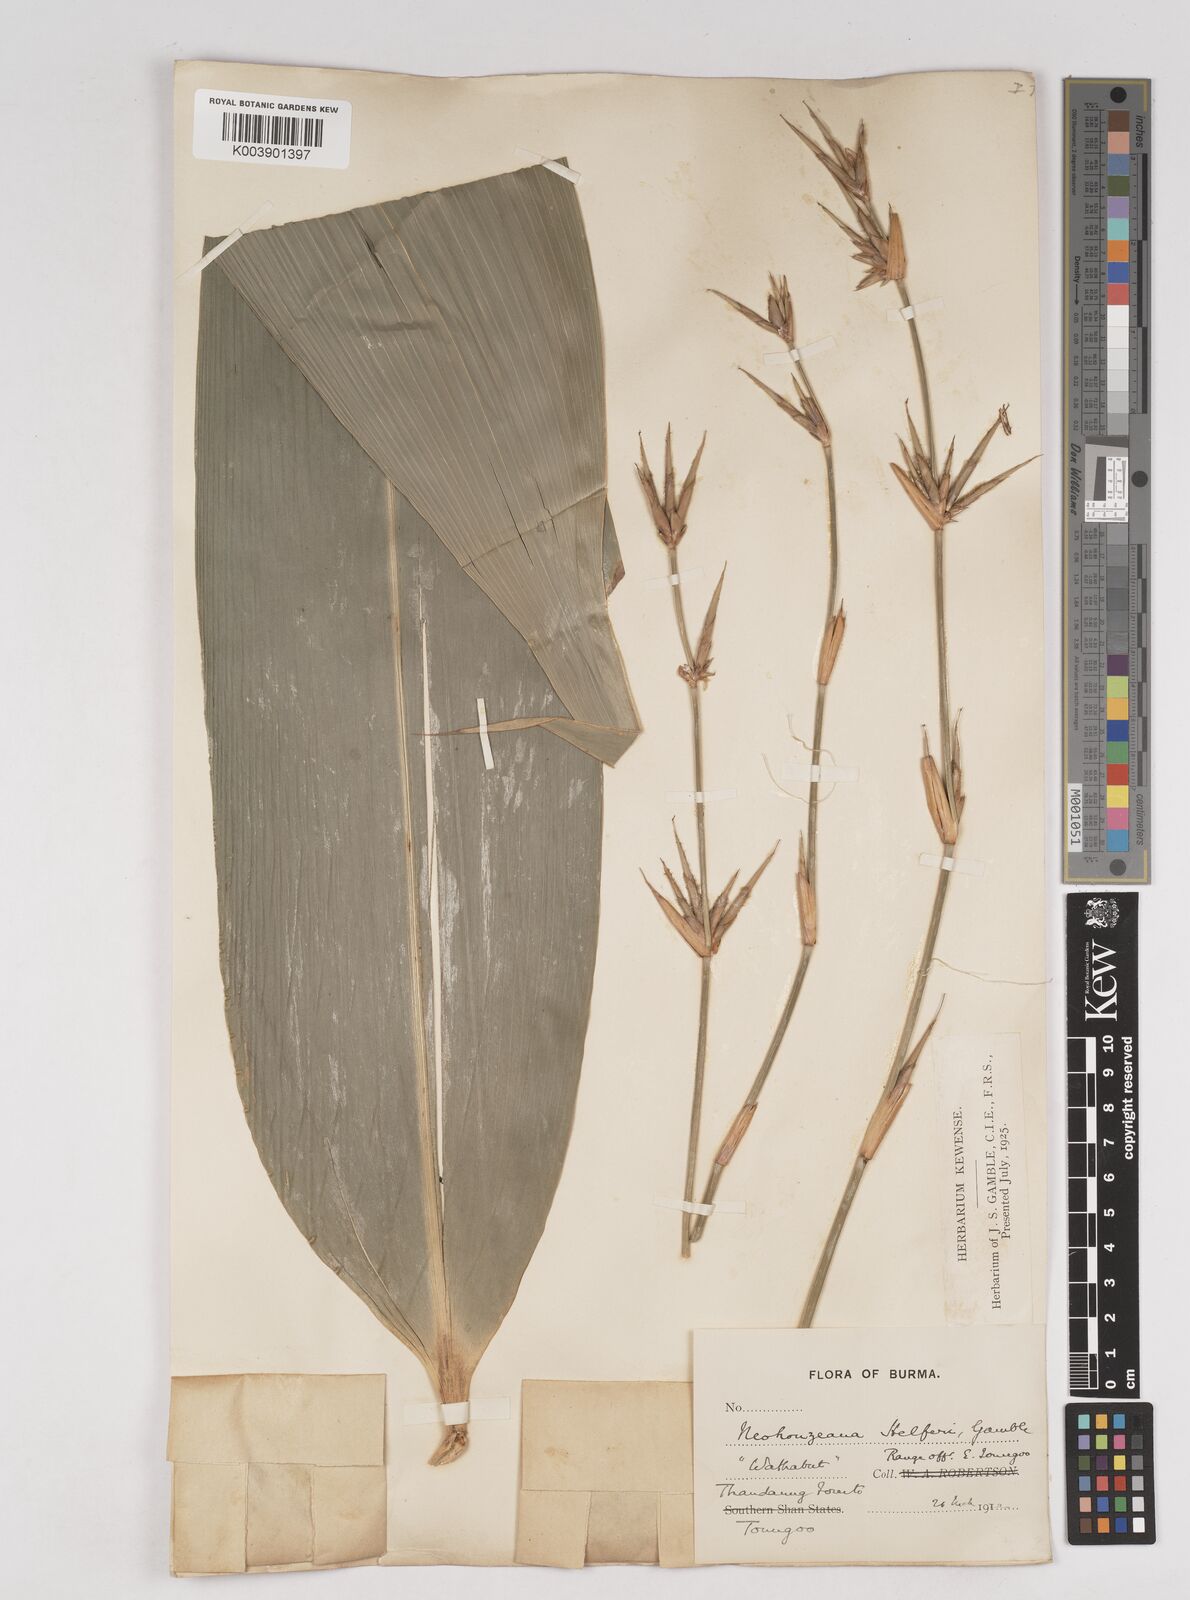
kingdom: Plantae
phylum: Tracheophyta
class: Liliopsida
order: Poales
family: Poaceae
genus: Schizostachyum
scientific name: Schizostachyum helferi
